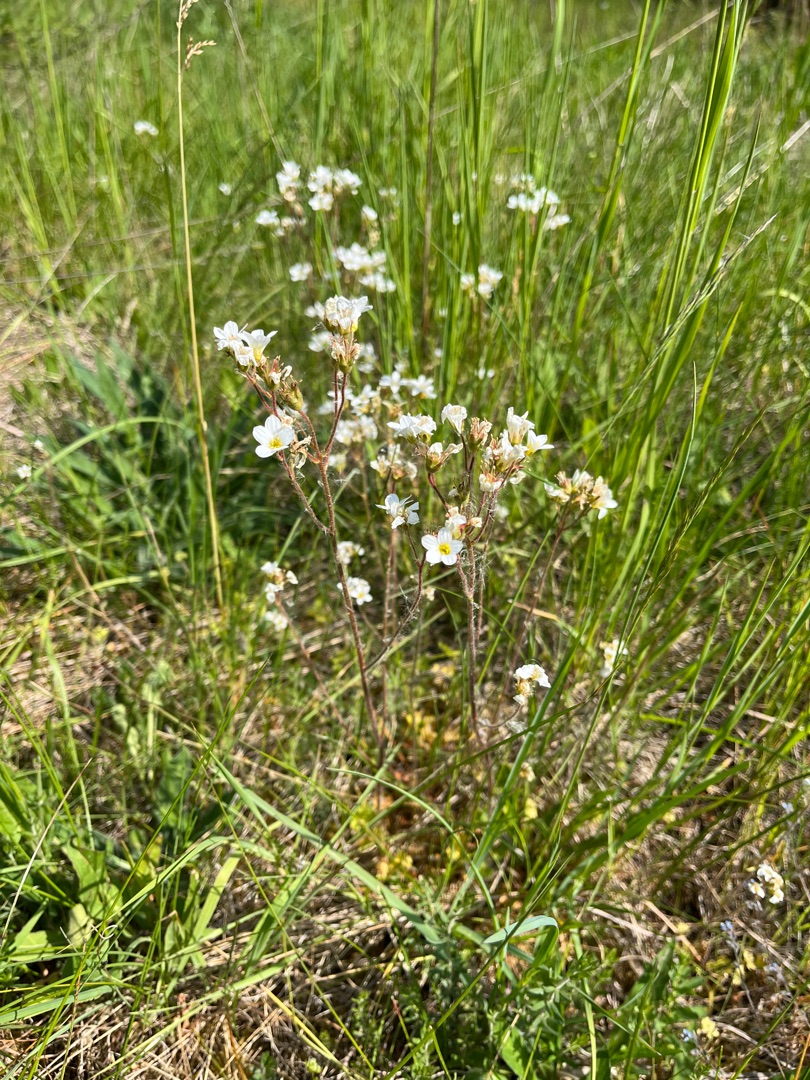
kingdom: Plantae
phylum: Tracheophyta
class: Magnoliopsida
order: Saxifragales
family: Saxifragaceae
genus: Saxifraga
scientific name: Saxifraga granulata
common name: Kornet stenbræk
